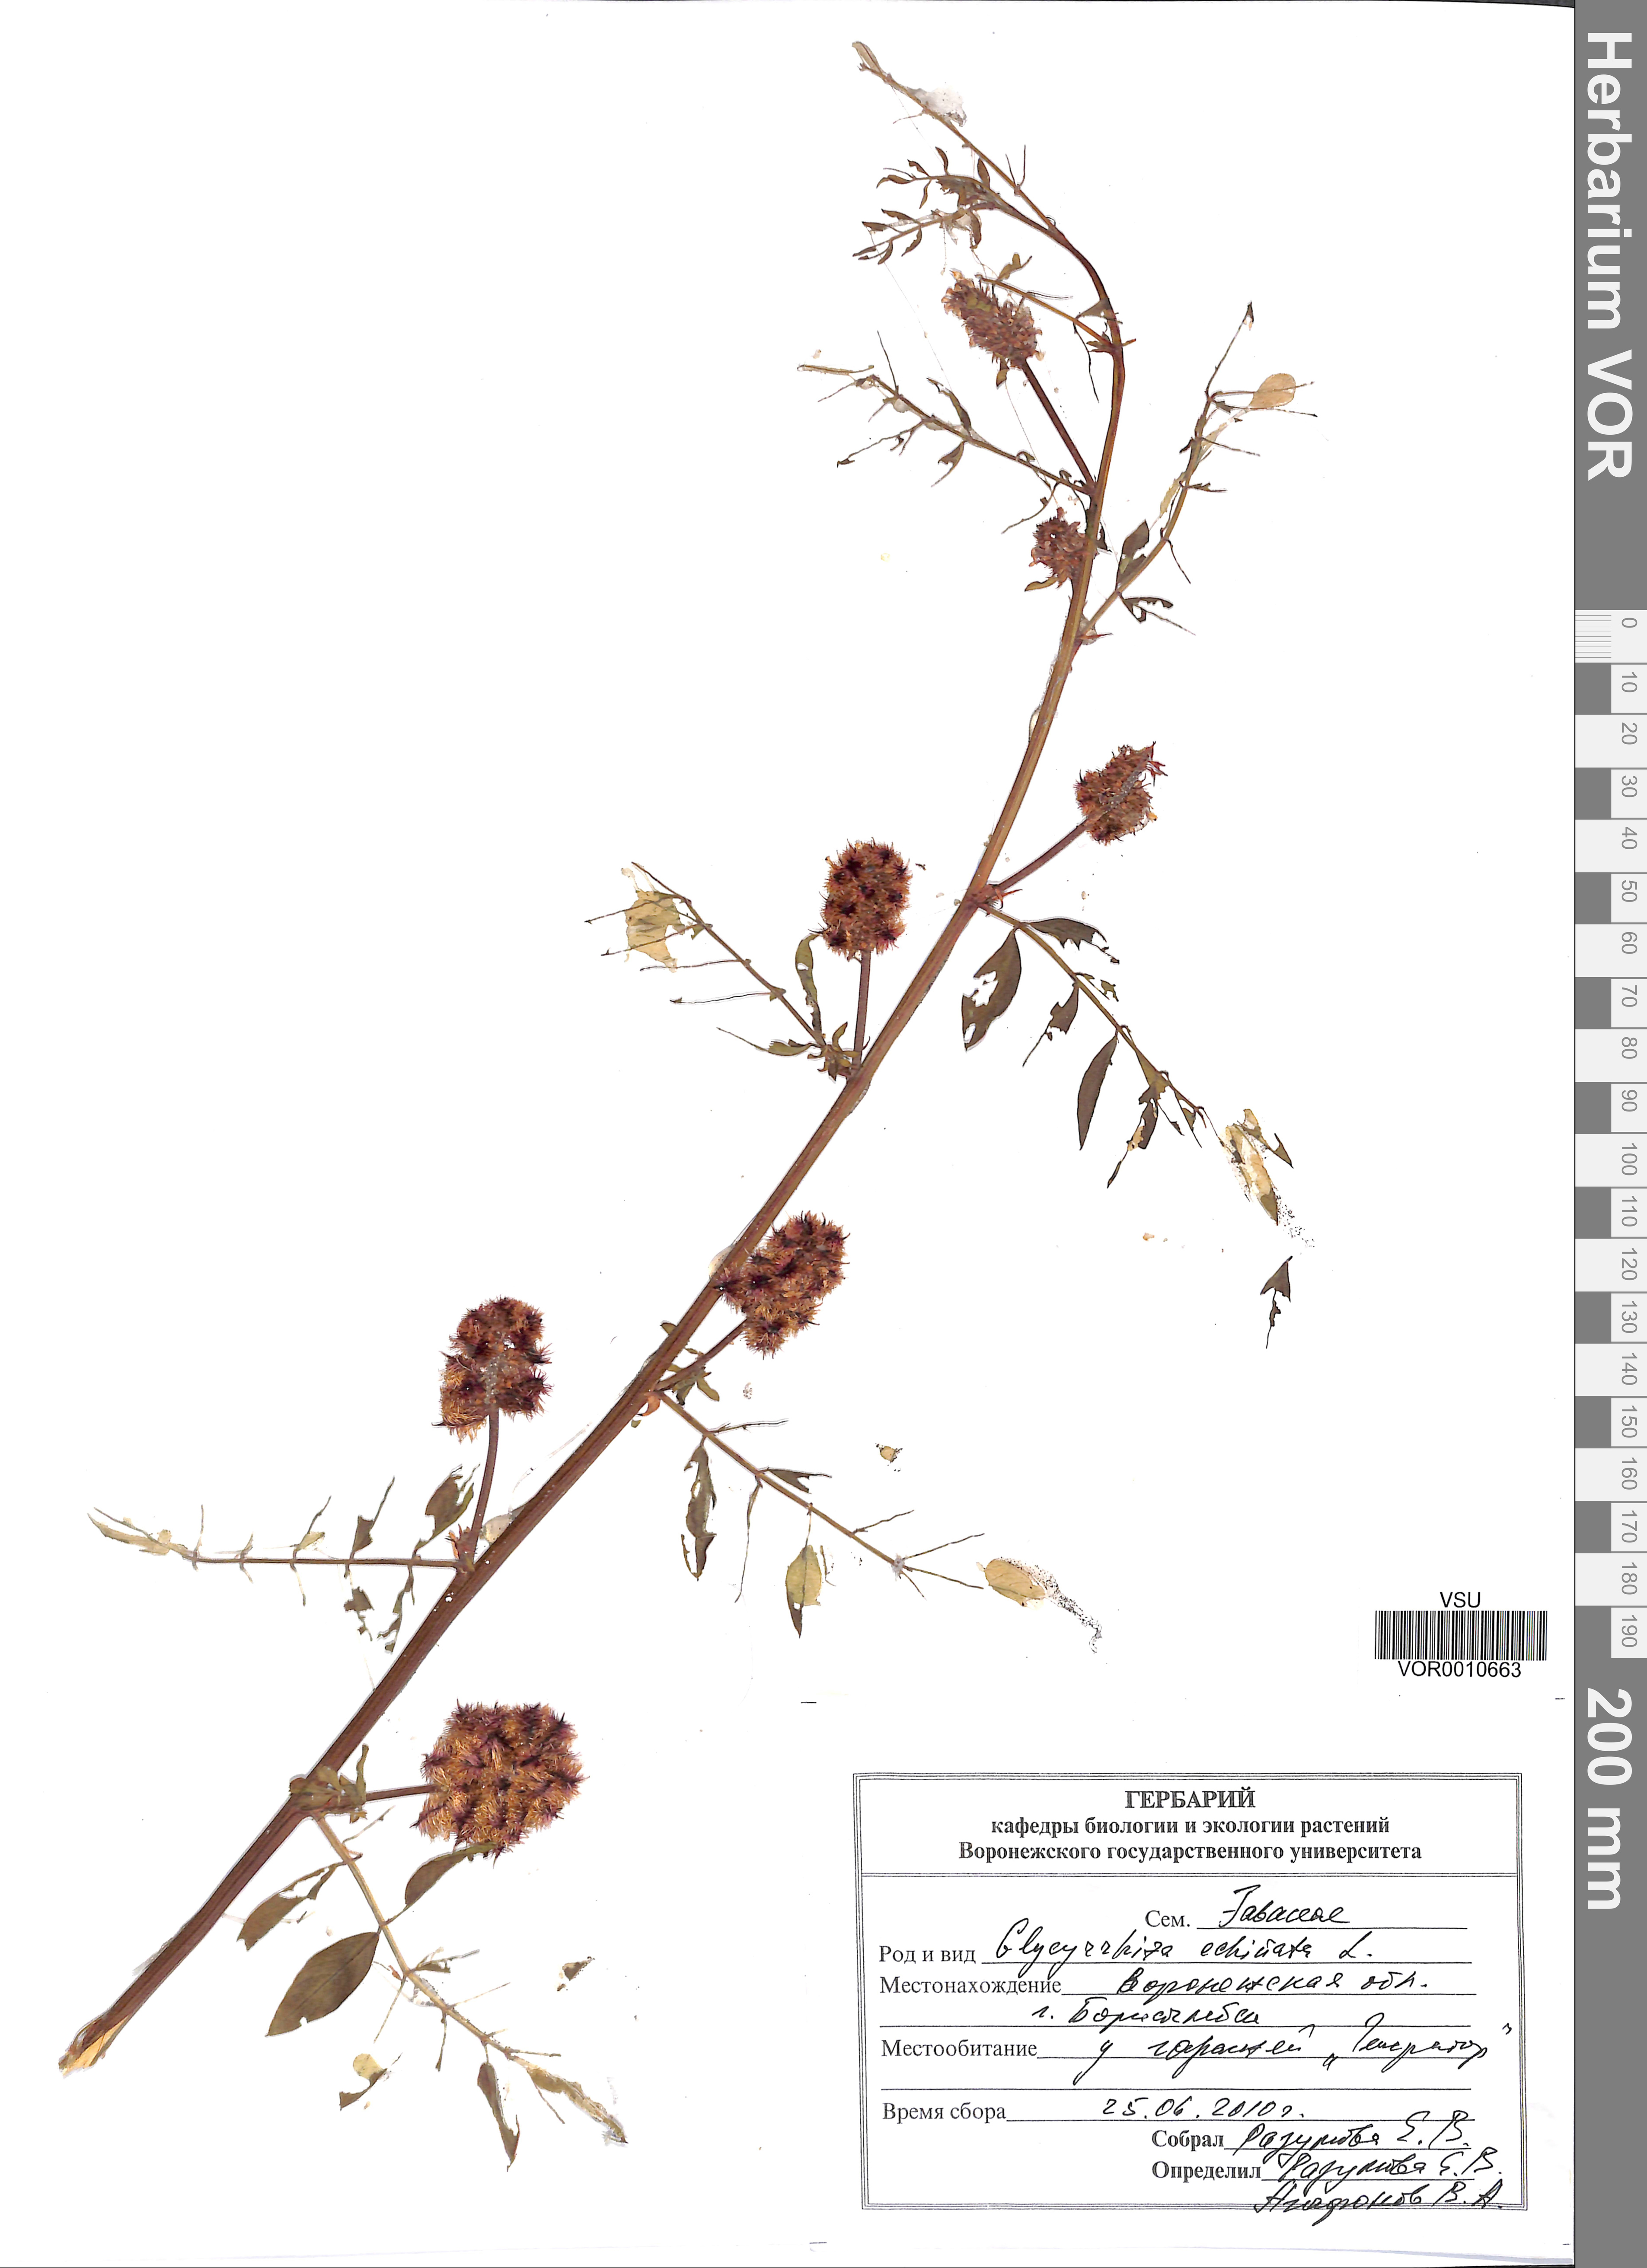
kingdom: Plantae
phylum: Tracheophyta
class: Magnoliopsida
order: Fabales
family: Fabaceae
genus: Glycyrrhiza
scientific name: Glycyrrhiza echinata
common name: German liquorice
